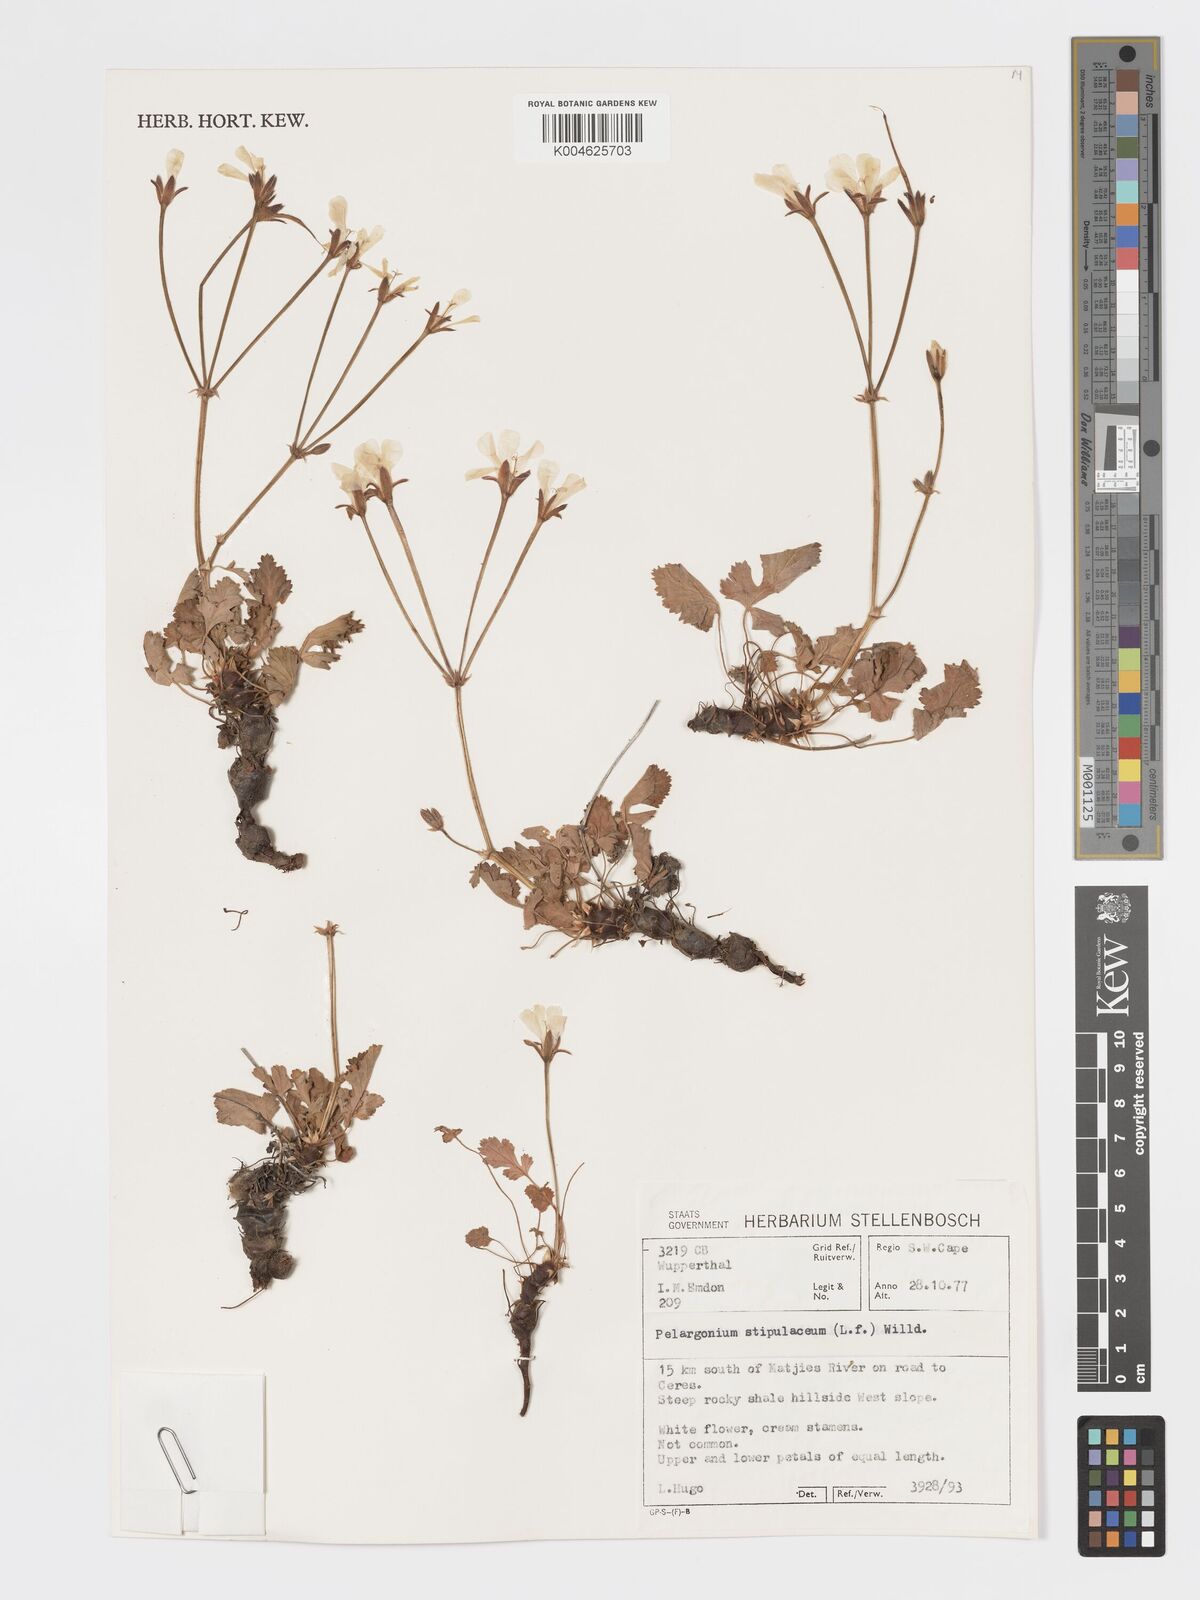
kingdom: Plantae
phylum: Tracheophyta
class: Magnoliopsida
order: Geraniales
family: Geraniaceae
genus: Pelargonium
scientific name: Pelargonium stipulaceum
